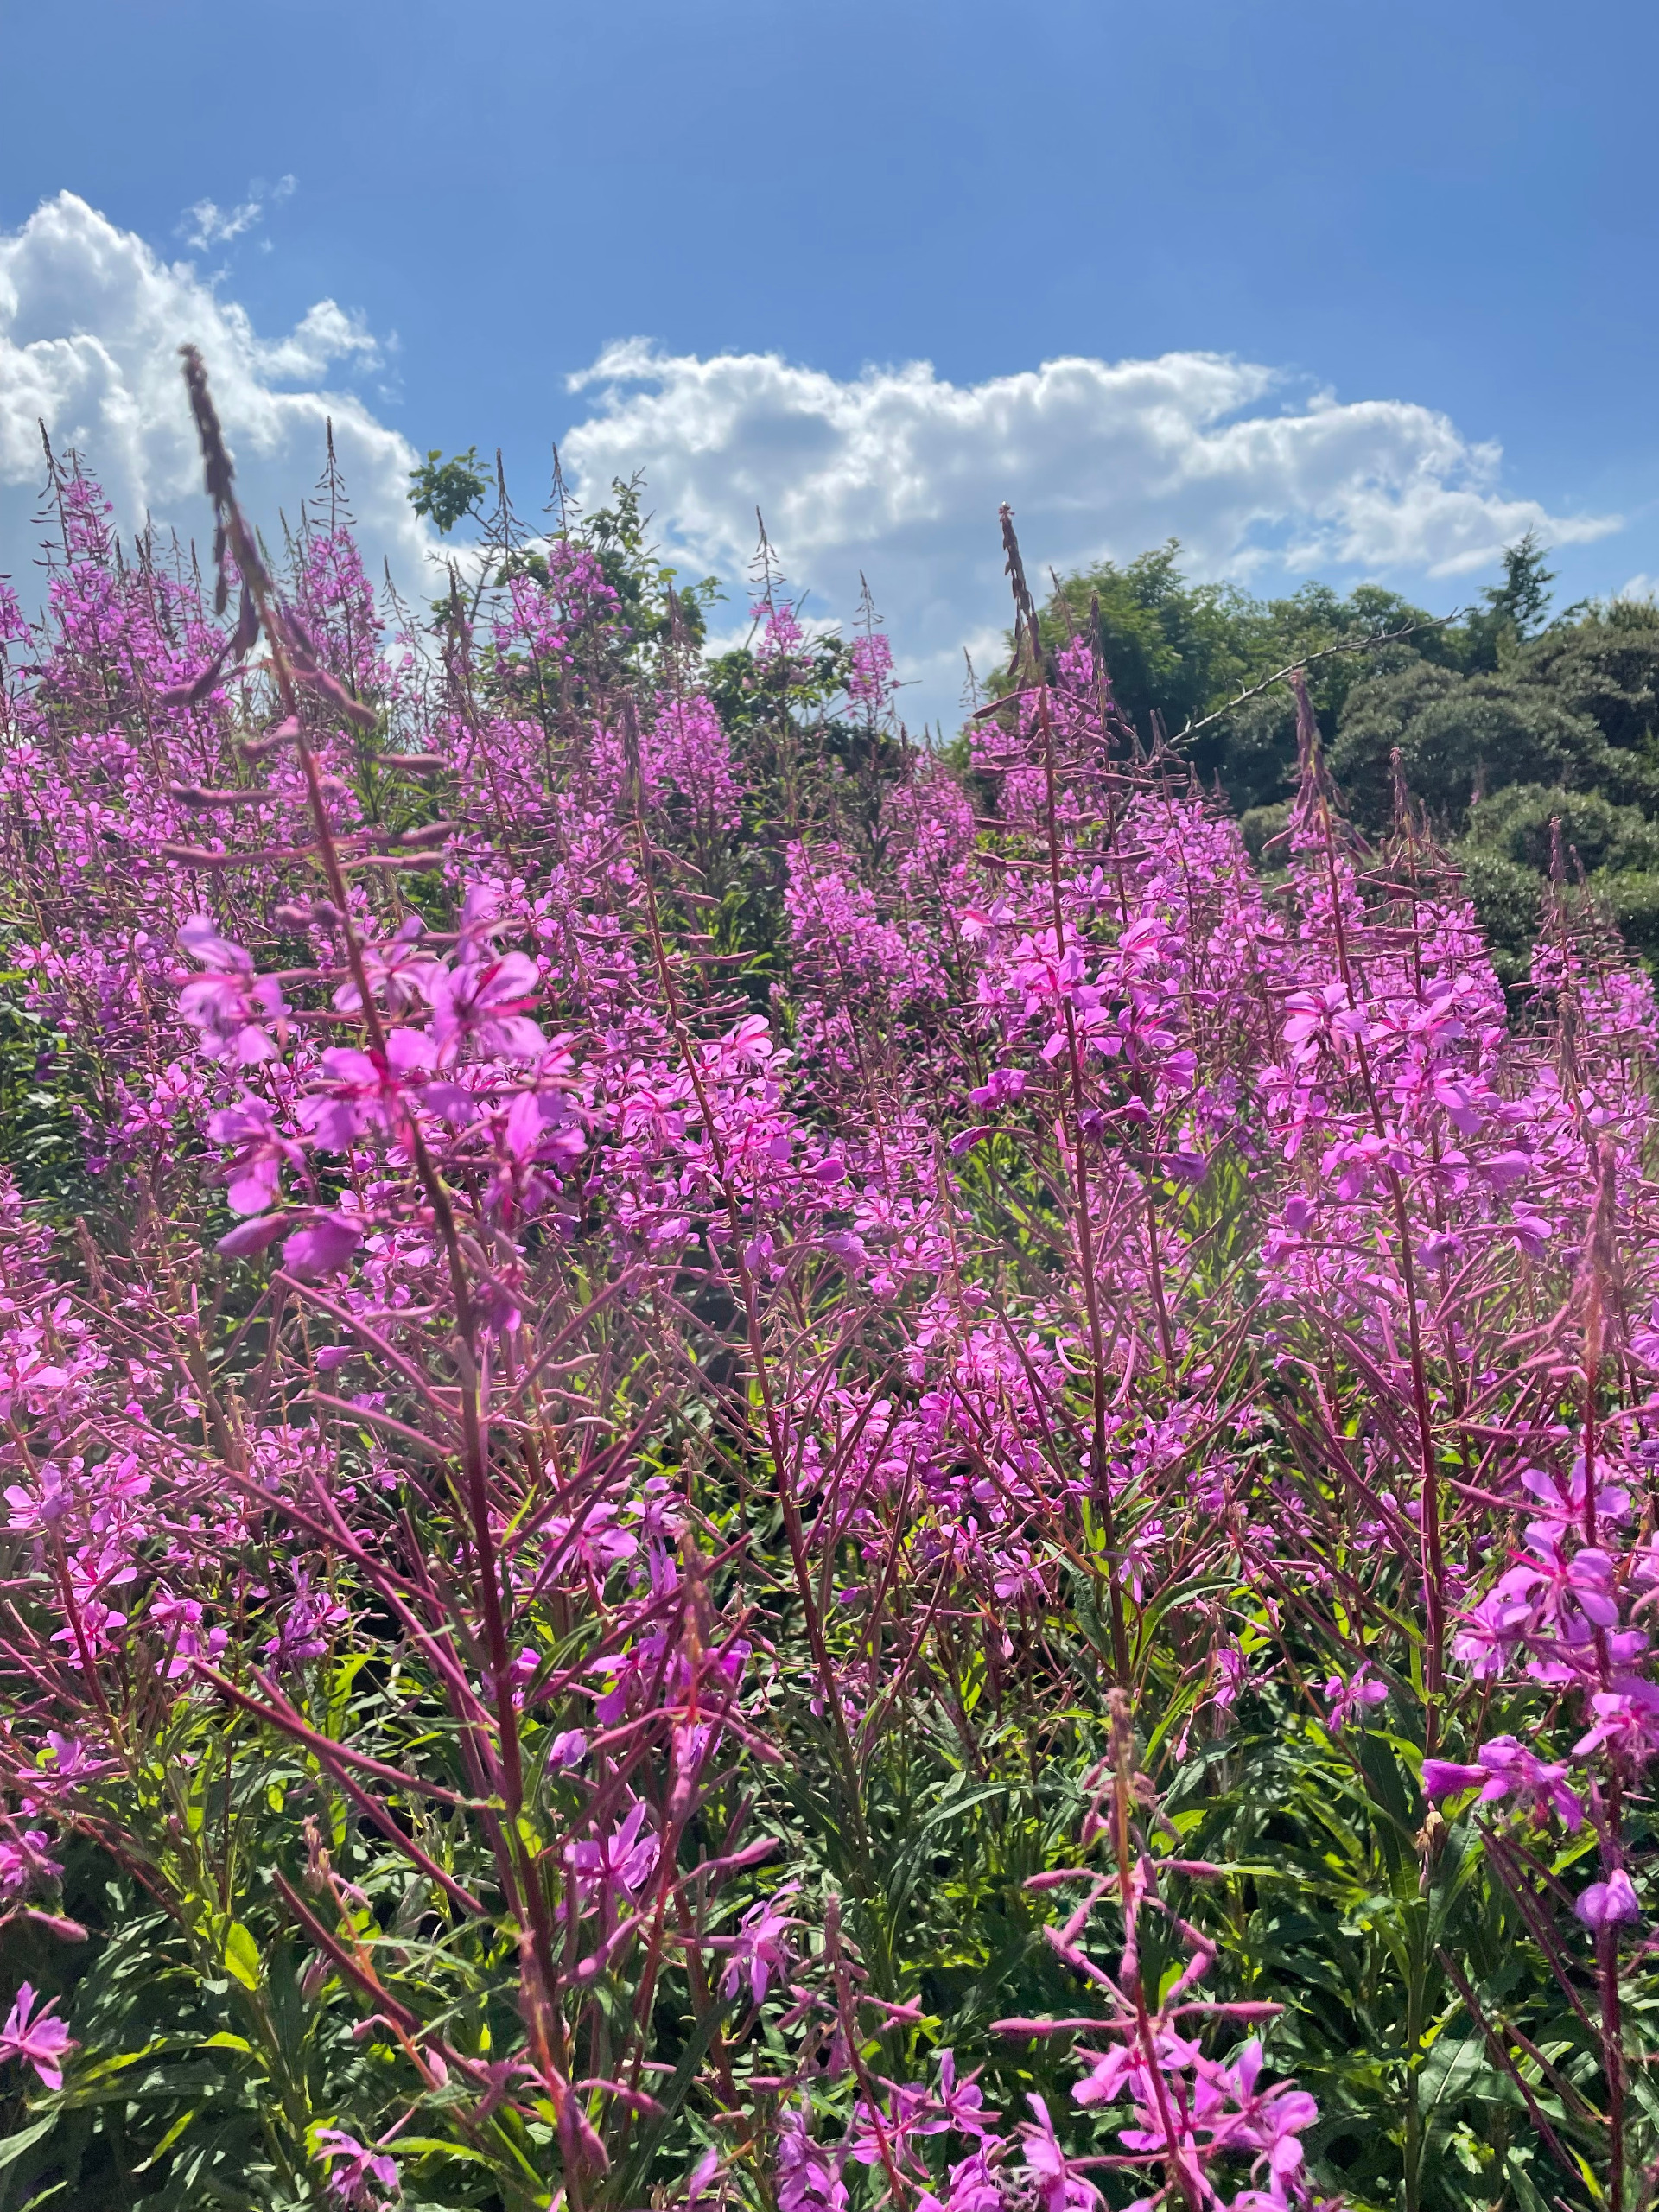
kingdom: Plantae
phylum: Tracheophyta
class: Magnoliopsida
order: Myrtales
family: Onagraceae
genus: Chamaenerion
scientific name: Chamaenerion angustifolium
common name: Gederams
